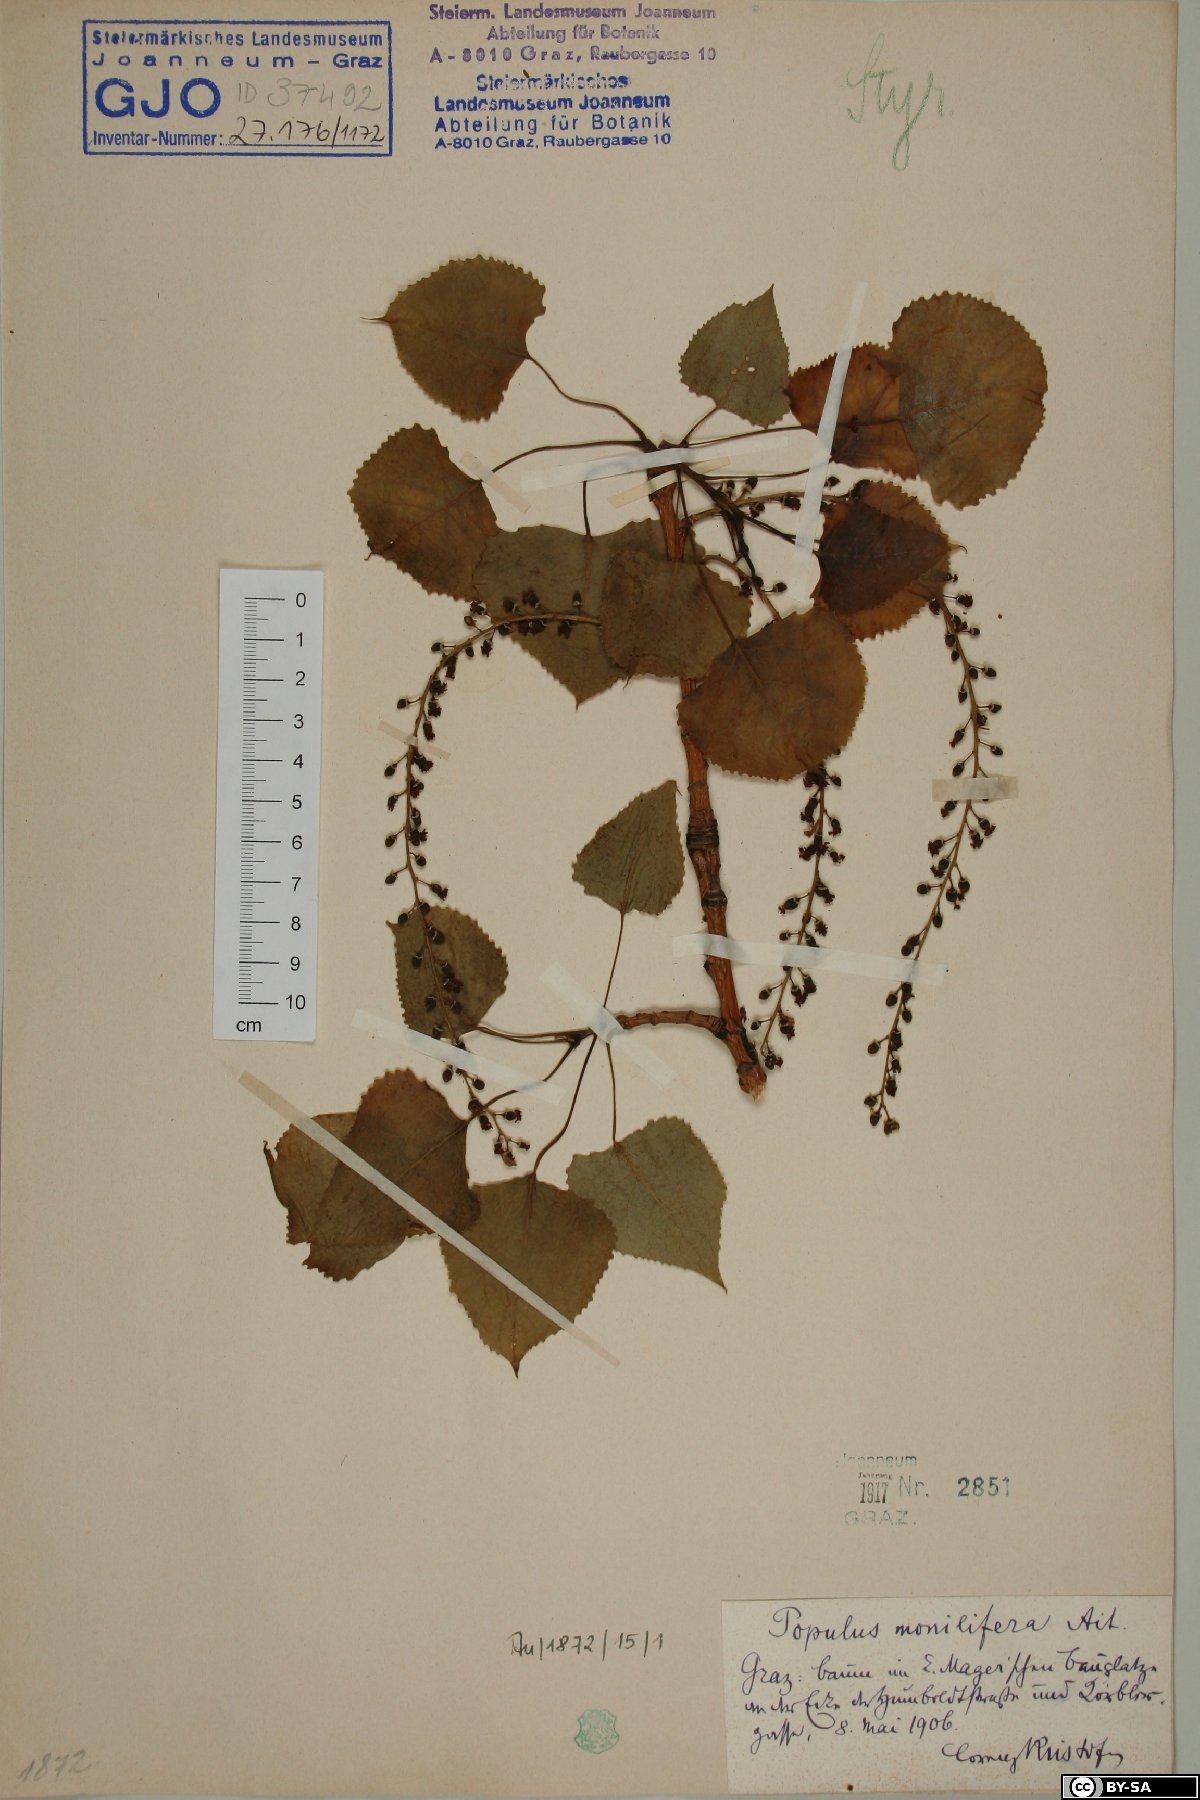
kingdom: Plantae
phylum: Tracheophyta
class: Magnoliopsida
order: Malpighiales
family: Salicaceae
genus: Populus
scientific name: Populus deltoides
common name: Eastern cottonwood
